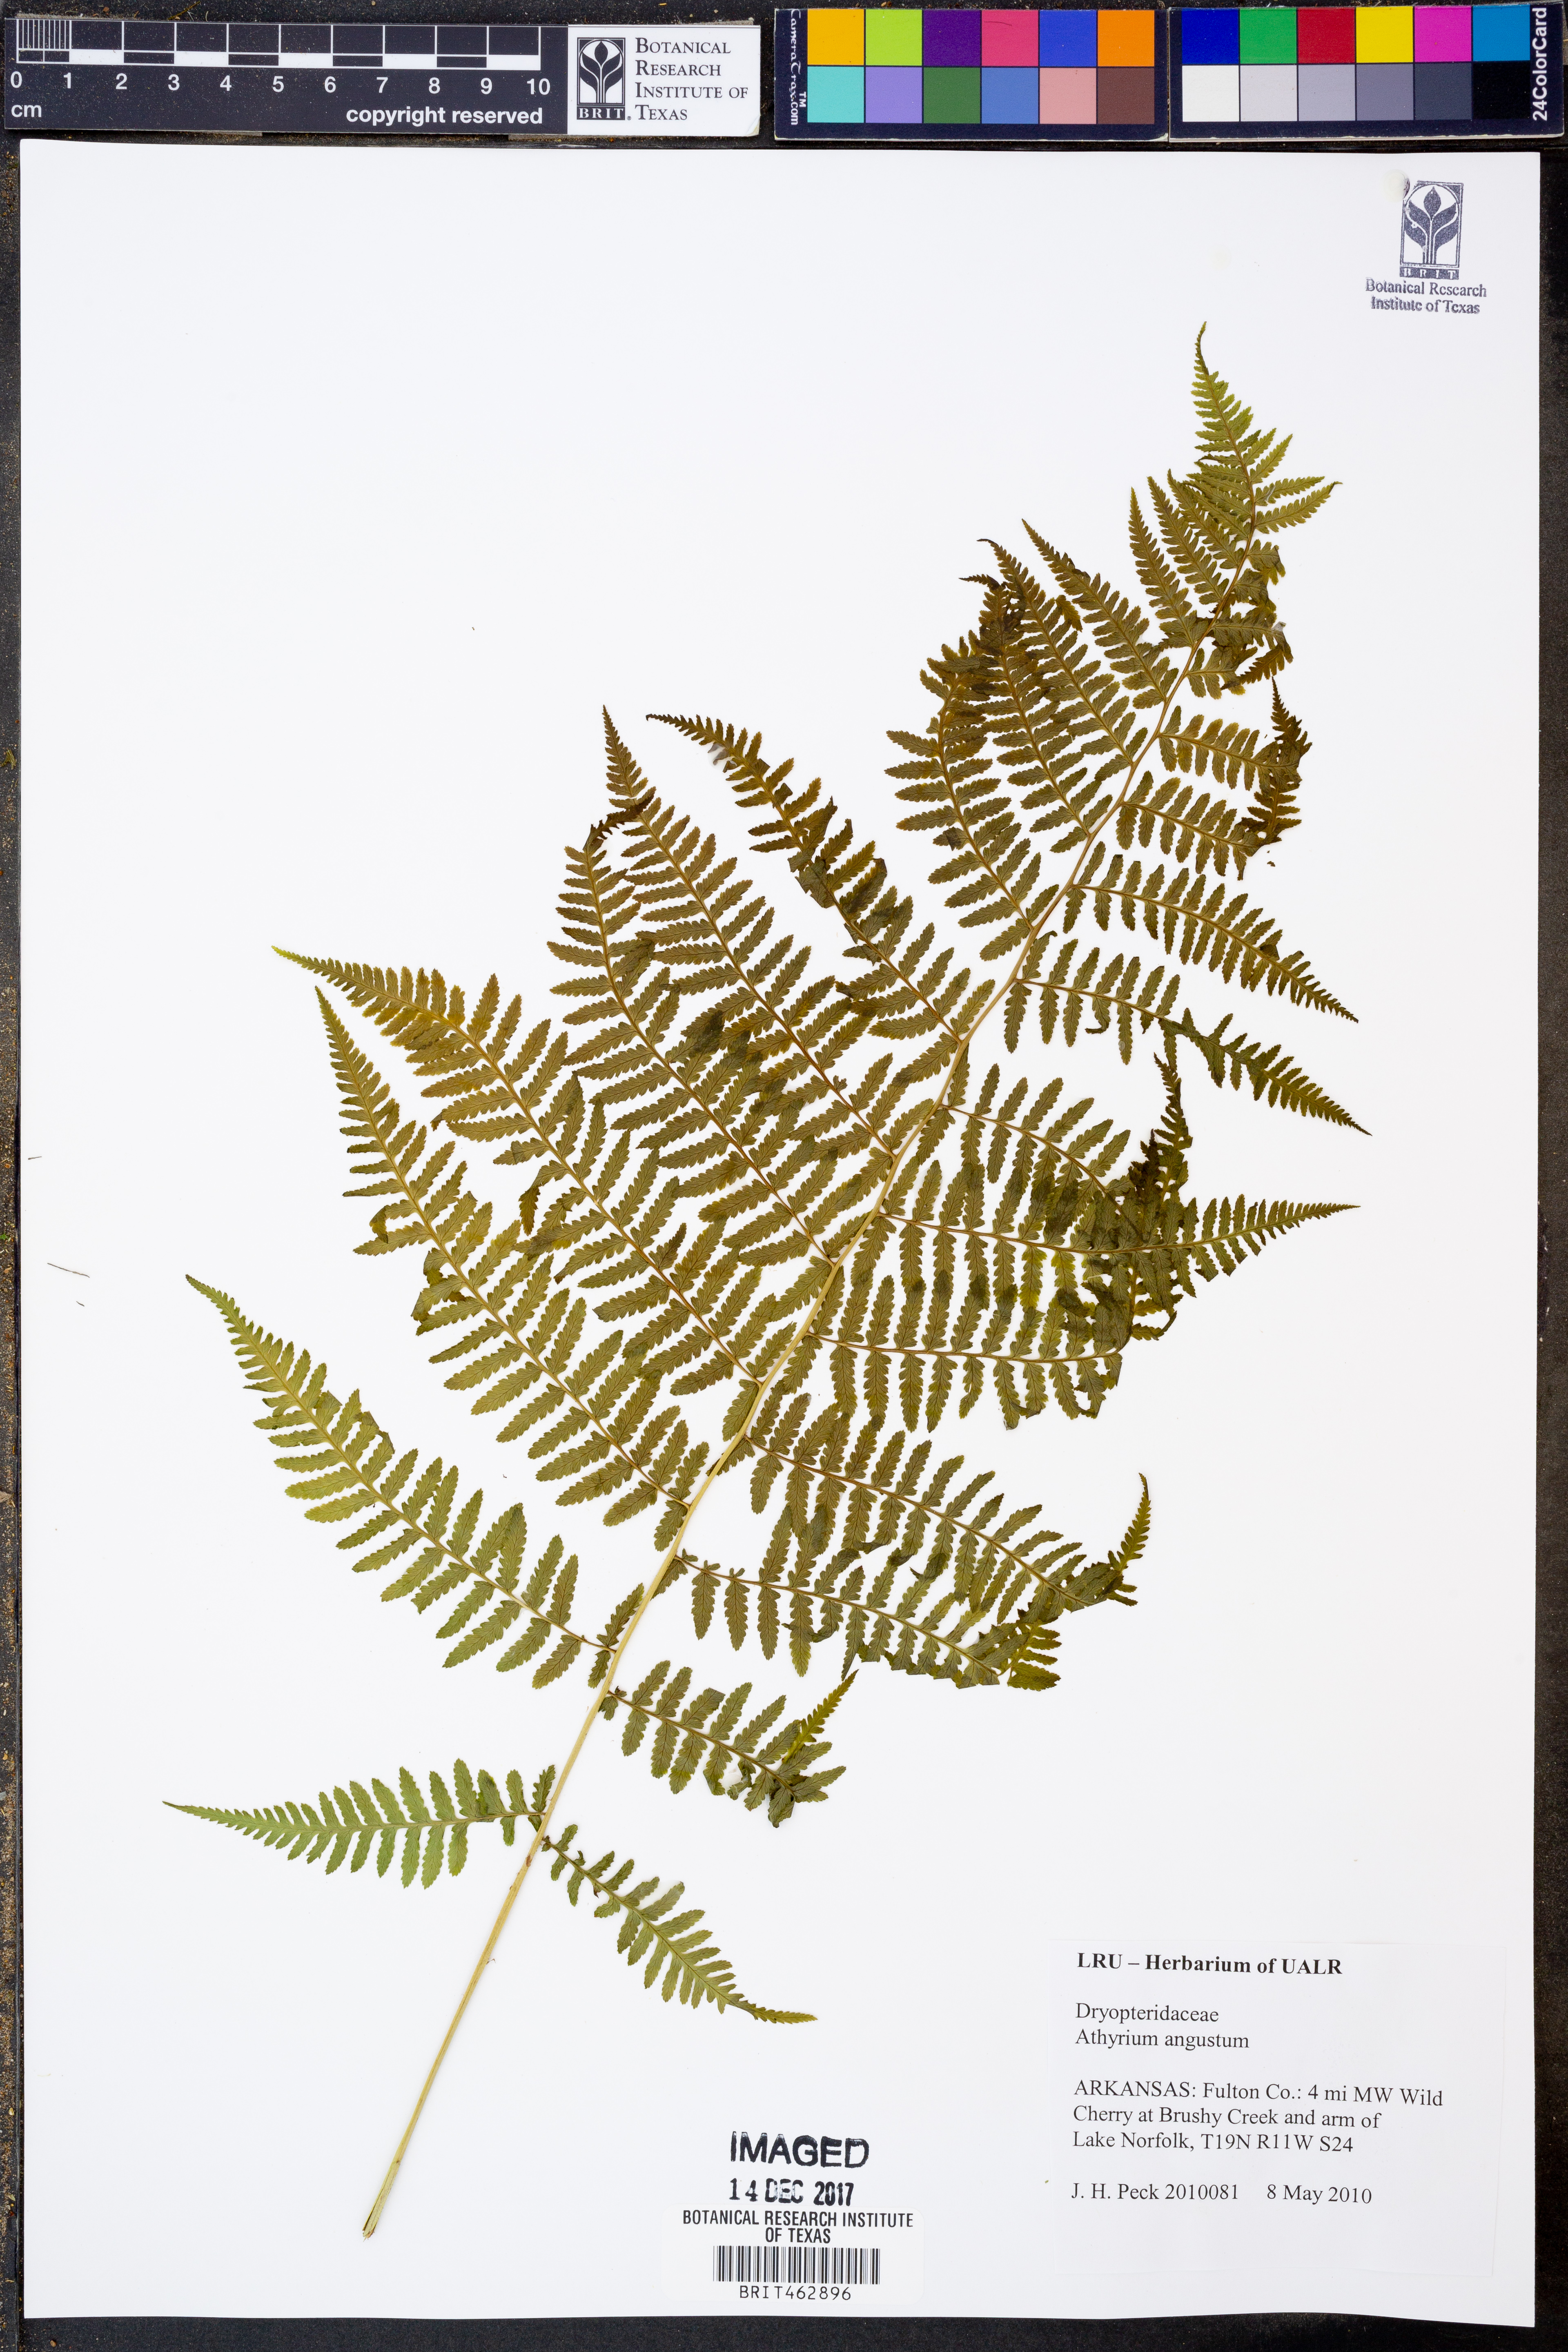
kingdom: Plantae
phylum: Tracheophyta
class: Polypodiopsida
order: Polypodiales
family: Dryopteridaceae
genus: Dryopteris
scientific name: Dryopteris goeldiana
